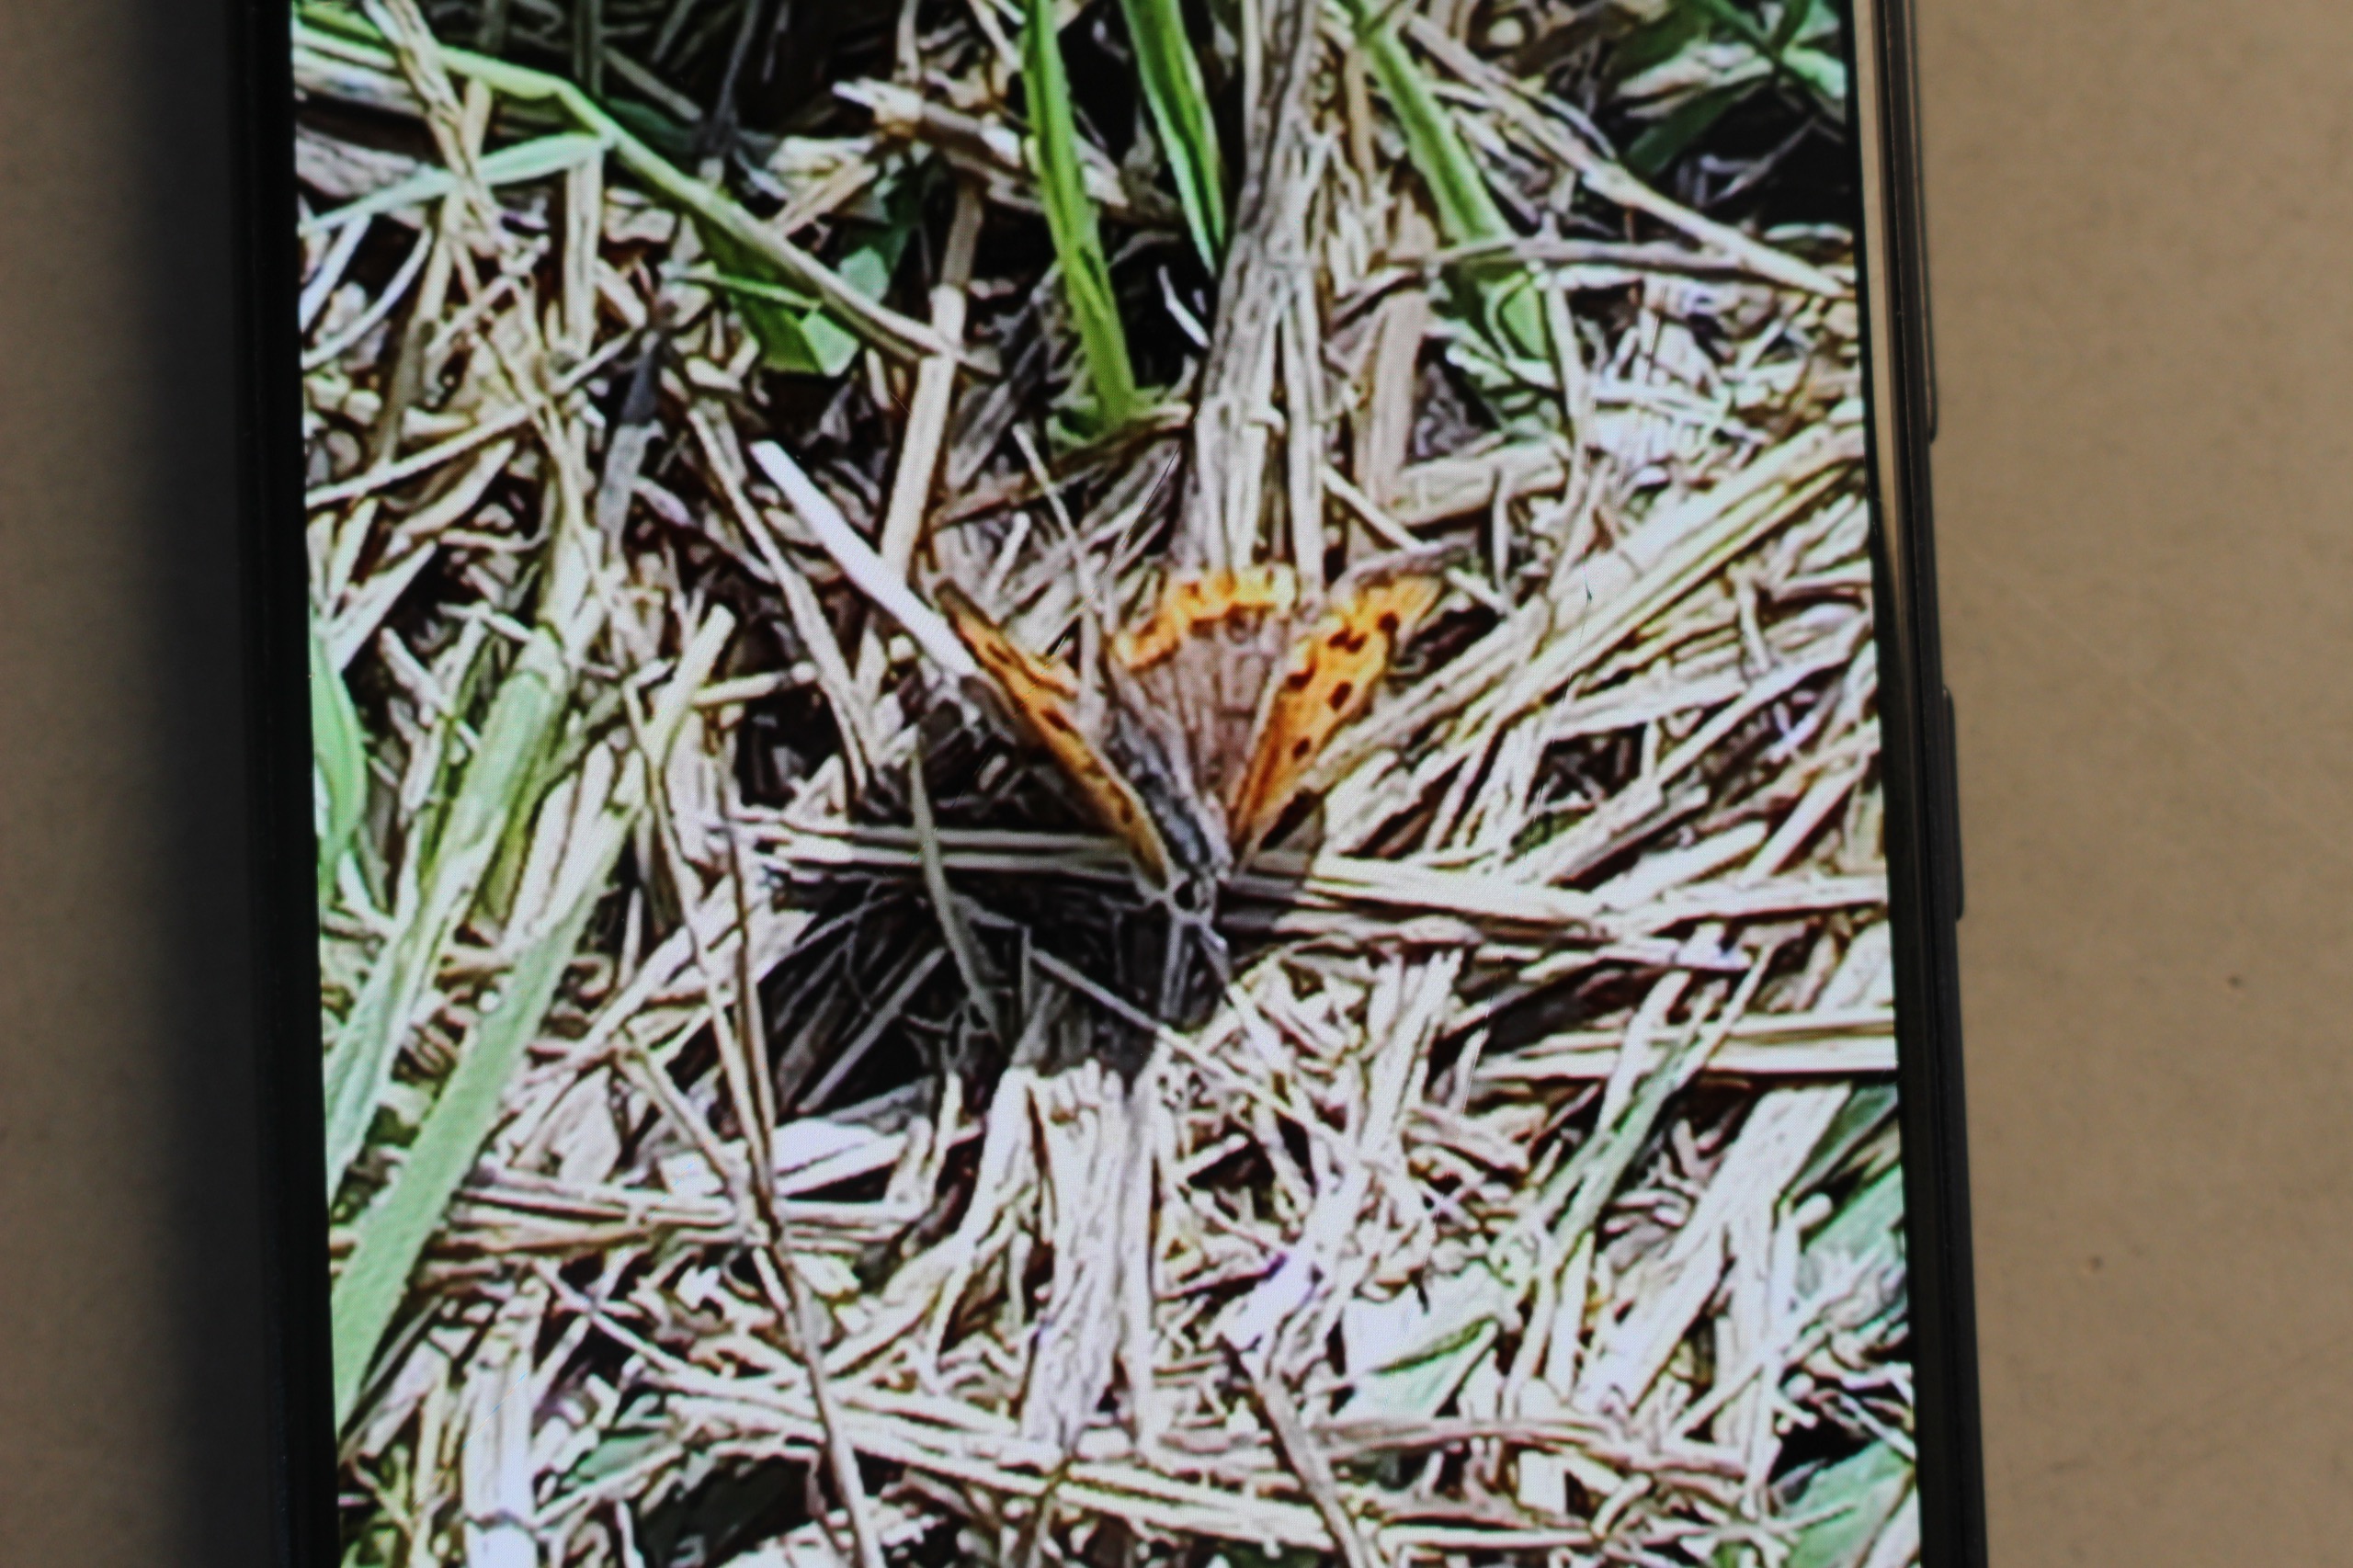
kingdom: Animalia
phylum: Arthropoda
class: Insecta
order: Lepidoptera
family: Lycaenidae
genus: Lycaena
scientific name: Lycaena phlaeas
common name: Lille ildfugl
